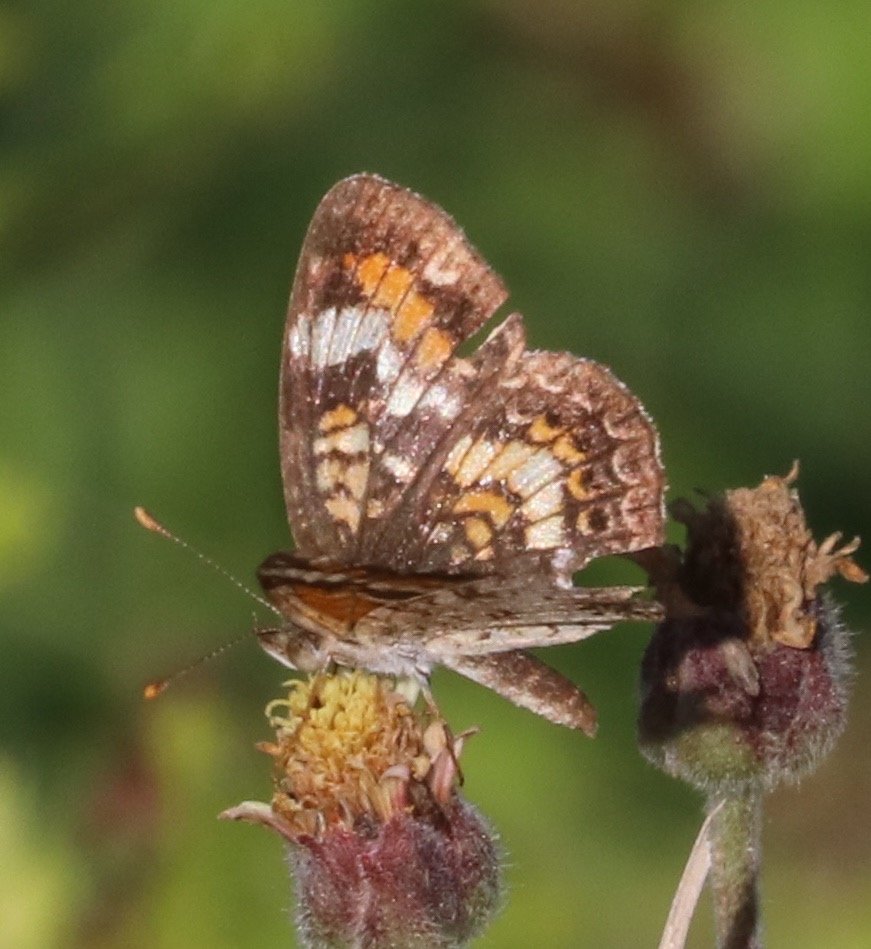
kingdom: Animalia
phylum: Arthropoda
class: Insecta
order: Lepidoptera
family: Nymphalidae
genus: Phyciodes
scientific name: Phyciodes phaon
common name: Phaon Crescent
